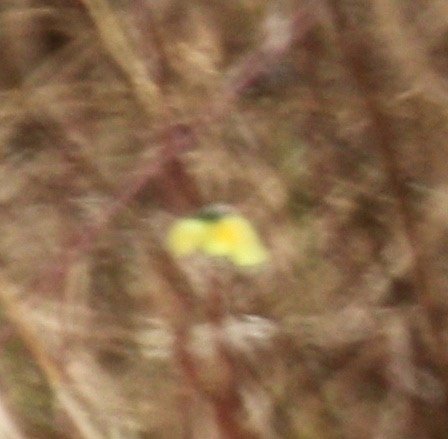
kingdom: Animalia
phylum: Arthropoda
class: Insecta
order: Lepidoptera
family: Pieridae
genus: Colias
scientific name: Colias eurytheme
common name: Orange Sulphur
